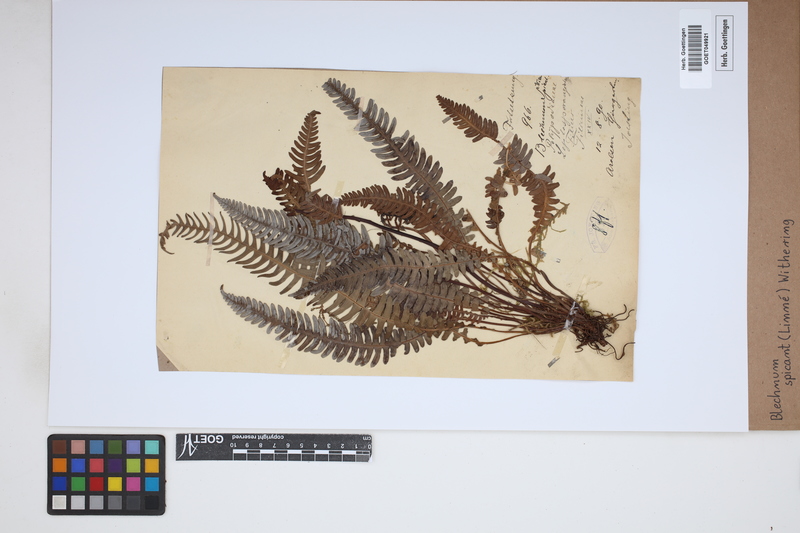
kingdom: Plantae
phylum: Tracheophyta
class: Polypodiopsida
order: Polypodiales
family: Blechnaceae
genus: Struthiopteris
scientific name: Struthiopteris spicant
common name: Deer fern
